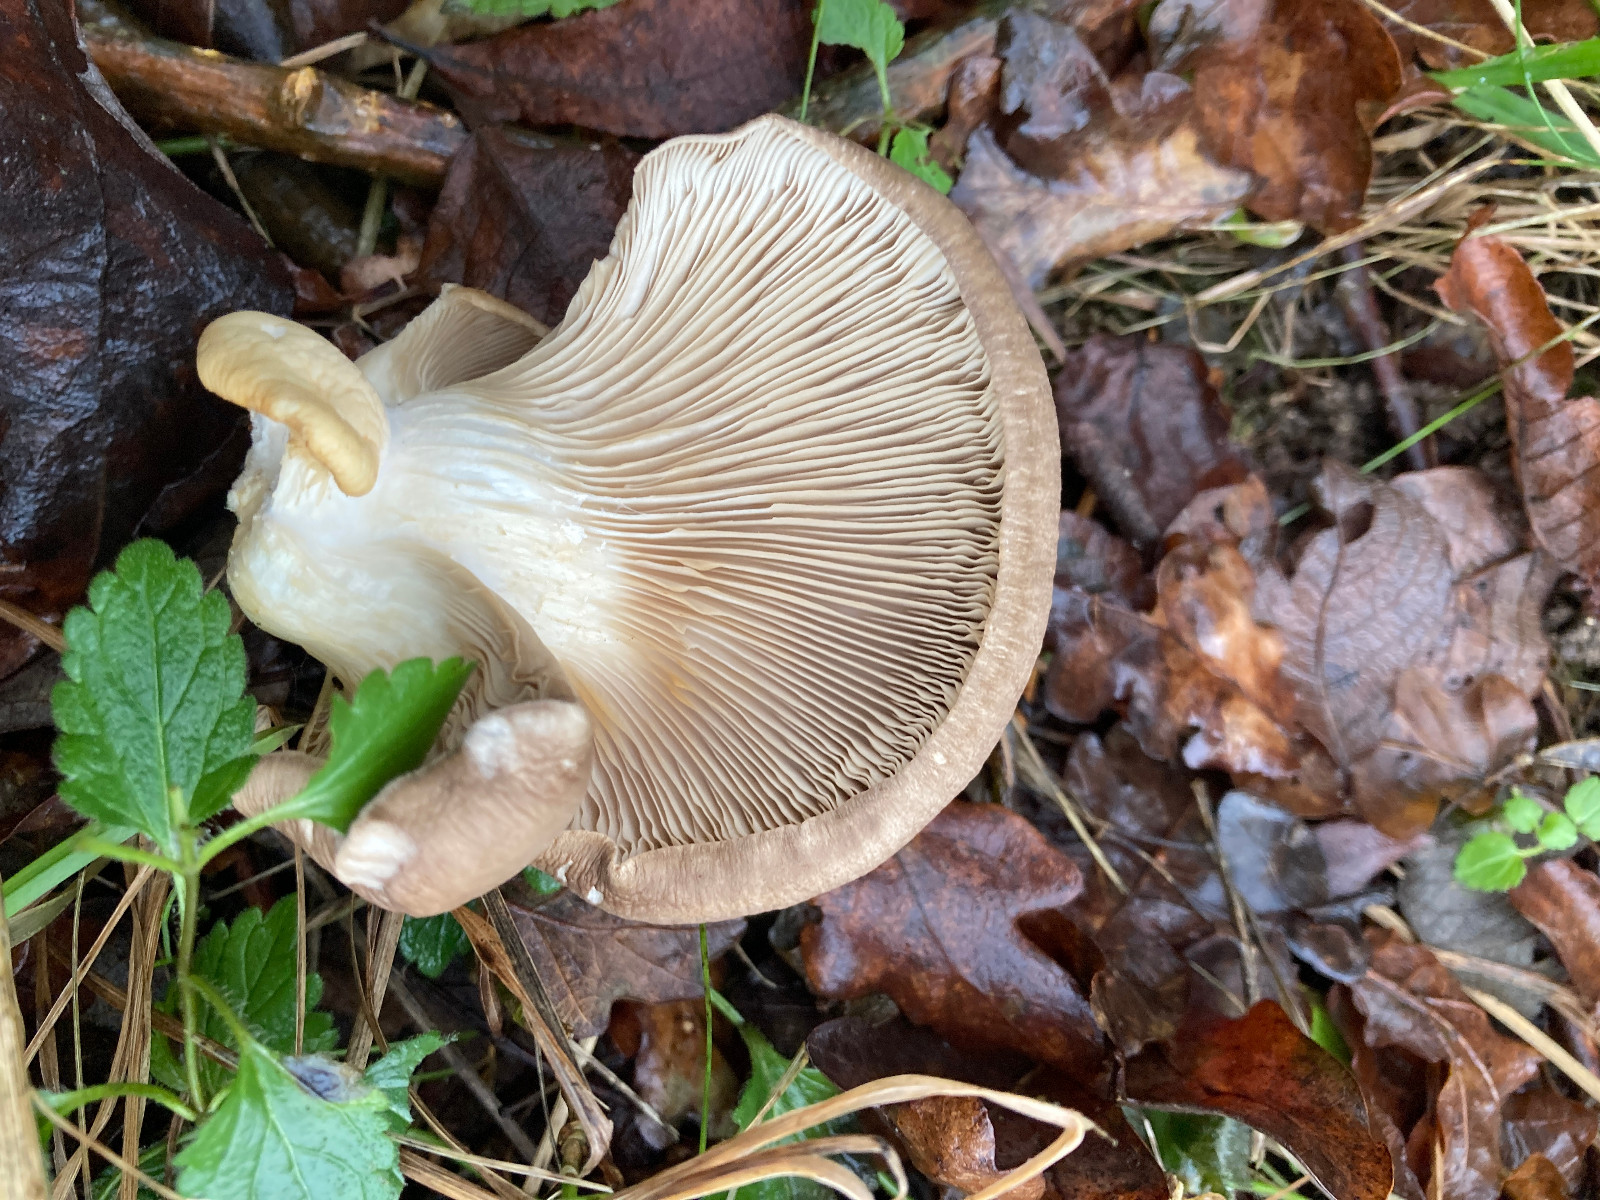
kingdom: Fungi
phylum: Basidiomycota
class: Agaricomycetes
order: Agaricales
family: Pleurotaceae
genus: Pleurotus
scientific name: Pleurotus ostreatus
